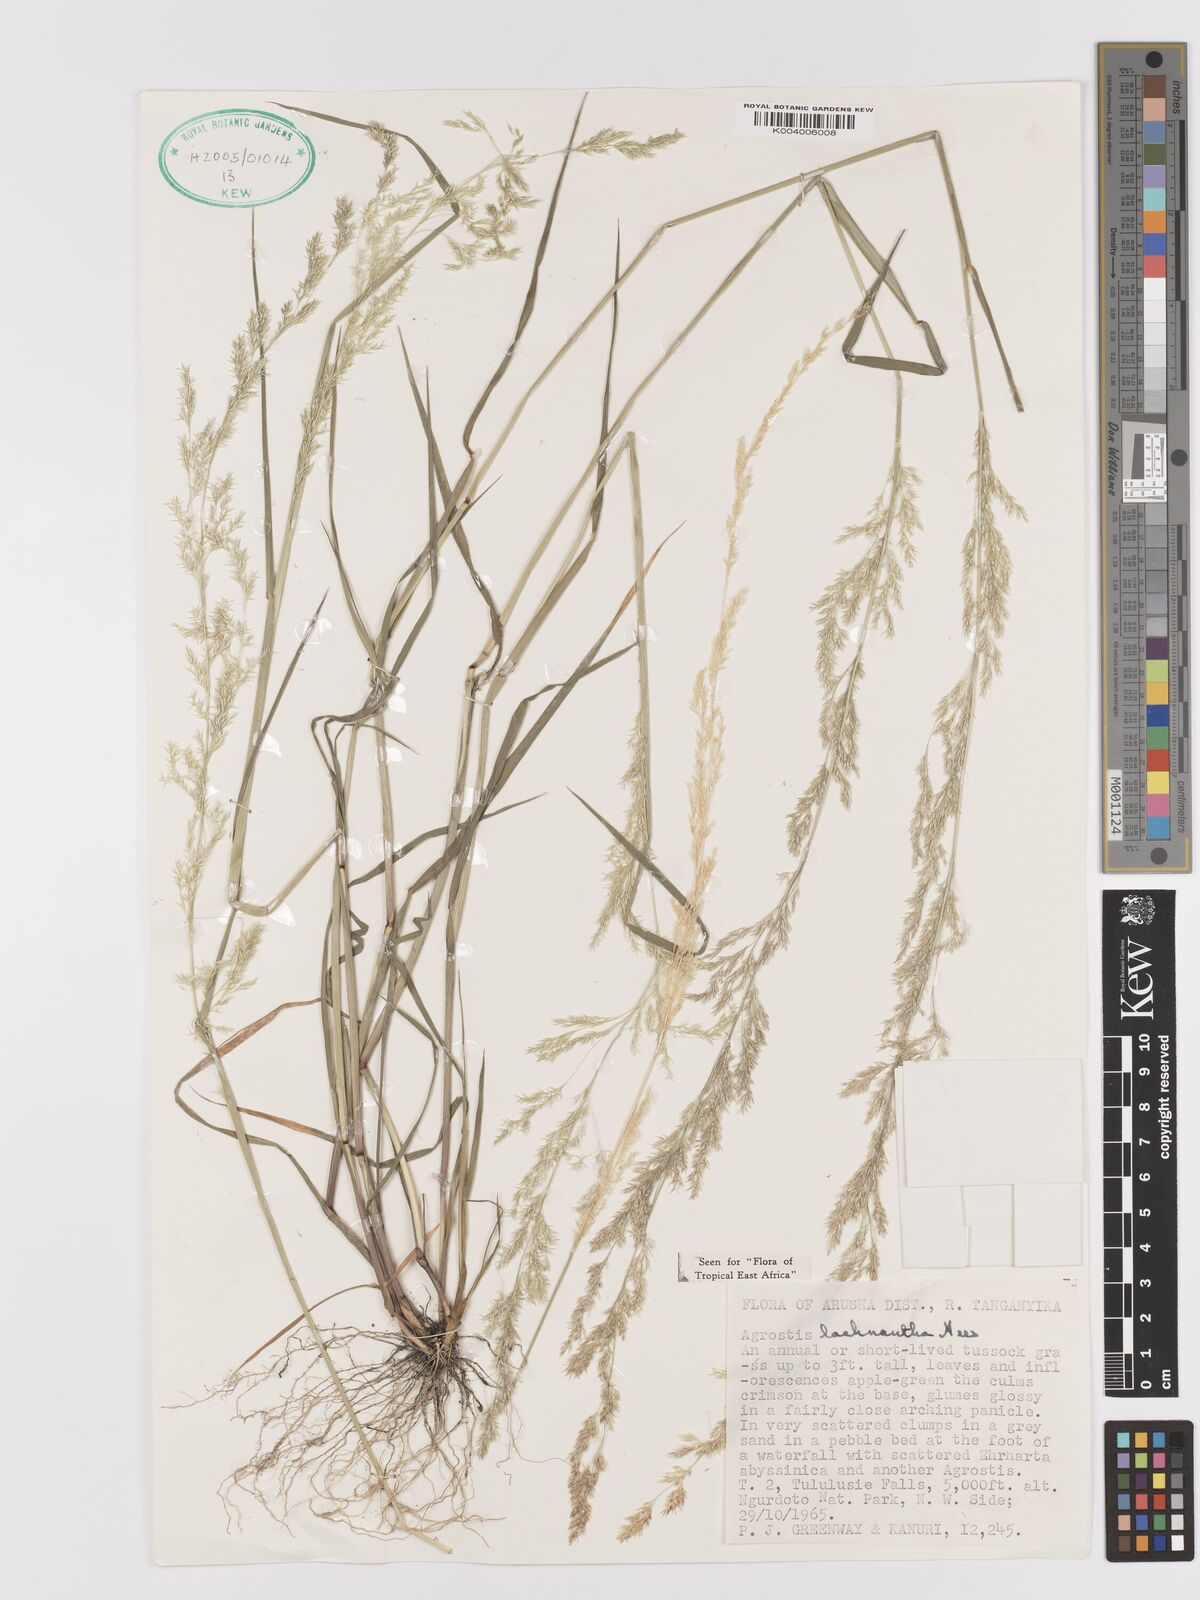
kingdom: Plantae
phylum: Tracheophyta
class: Liliopsida
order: Poales
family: Poaceae
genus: Lachnagrostis
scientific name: Lachnagrostis lachnantha
